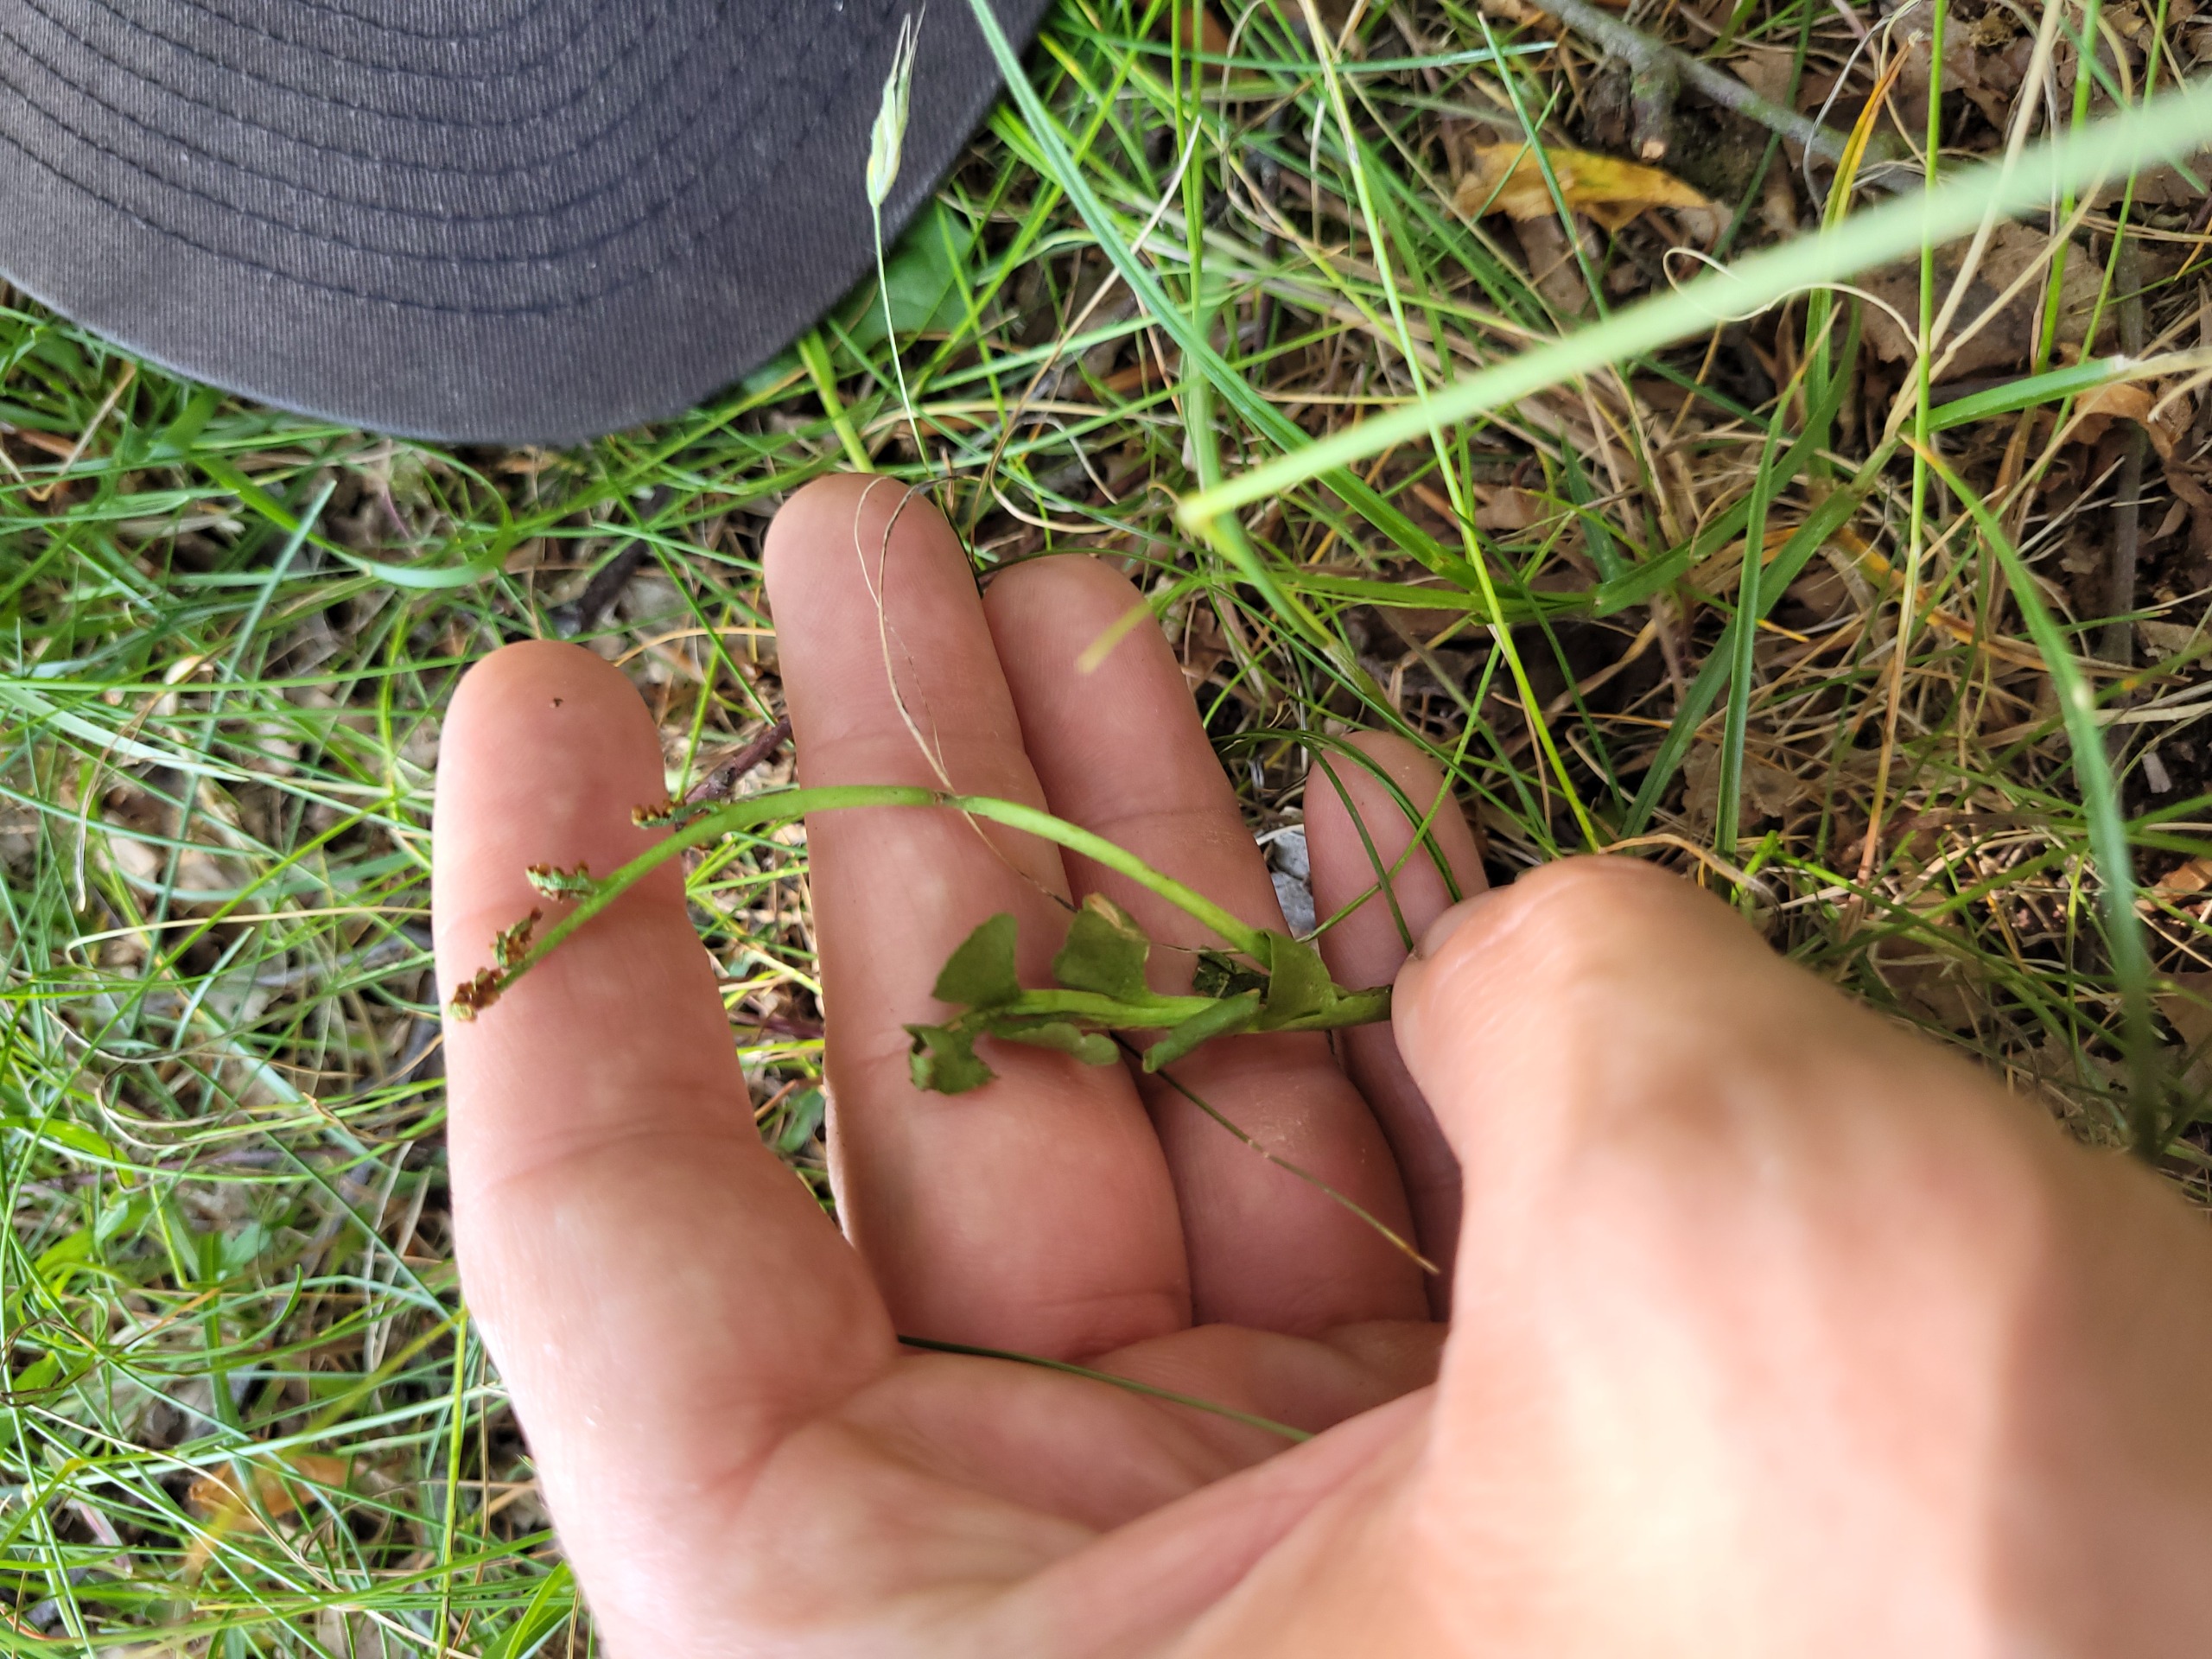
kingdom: Plantae
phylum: Tracheophyta
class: Polypodiopsida
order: Ophioglossales
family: Ophioglossaceae
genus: Botrychium
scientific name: Botrychium lunaria
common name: Almindelig månerude
